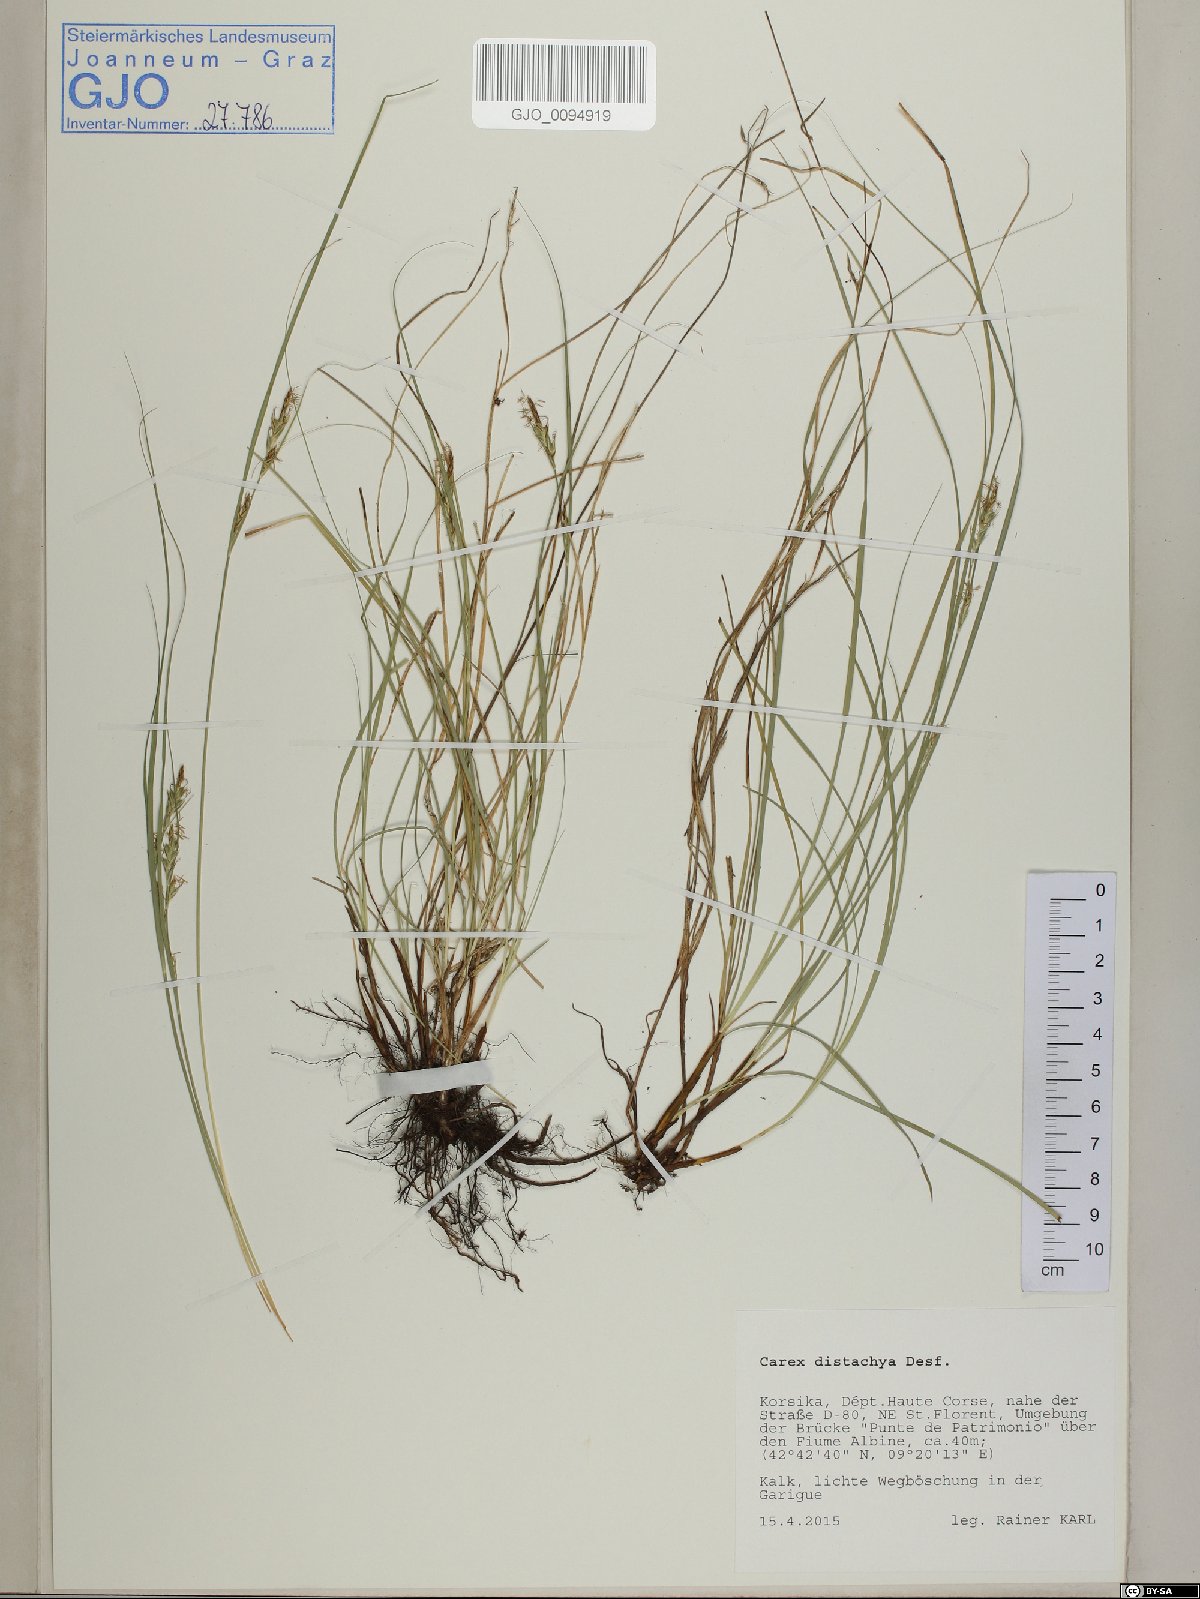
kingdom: Plantae
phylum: Tracheophyta
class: Liliopsida
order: Poales
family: Cyperaceae
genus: Carex
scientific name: Carex distachya
